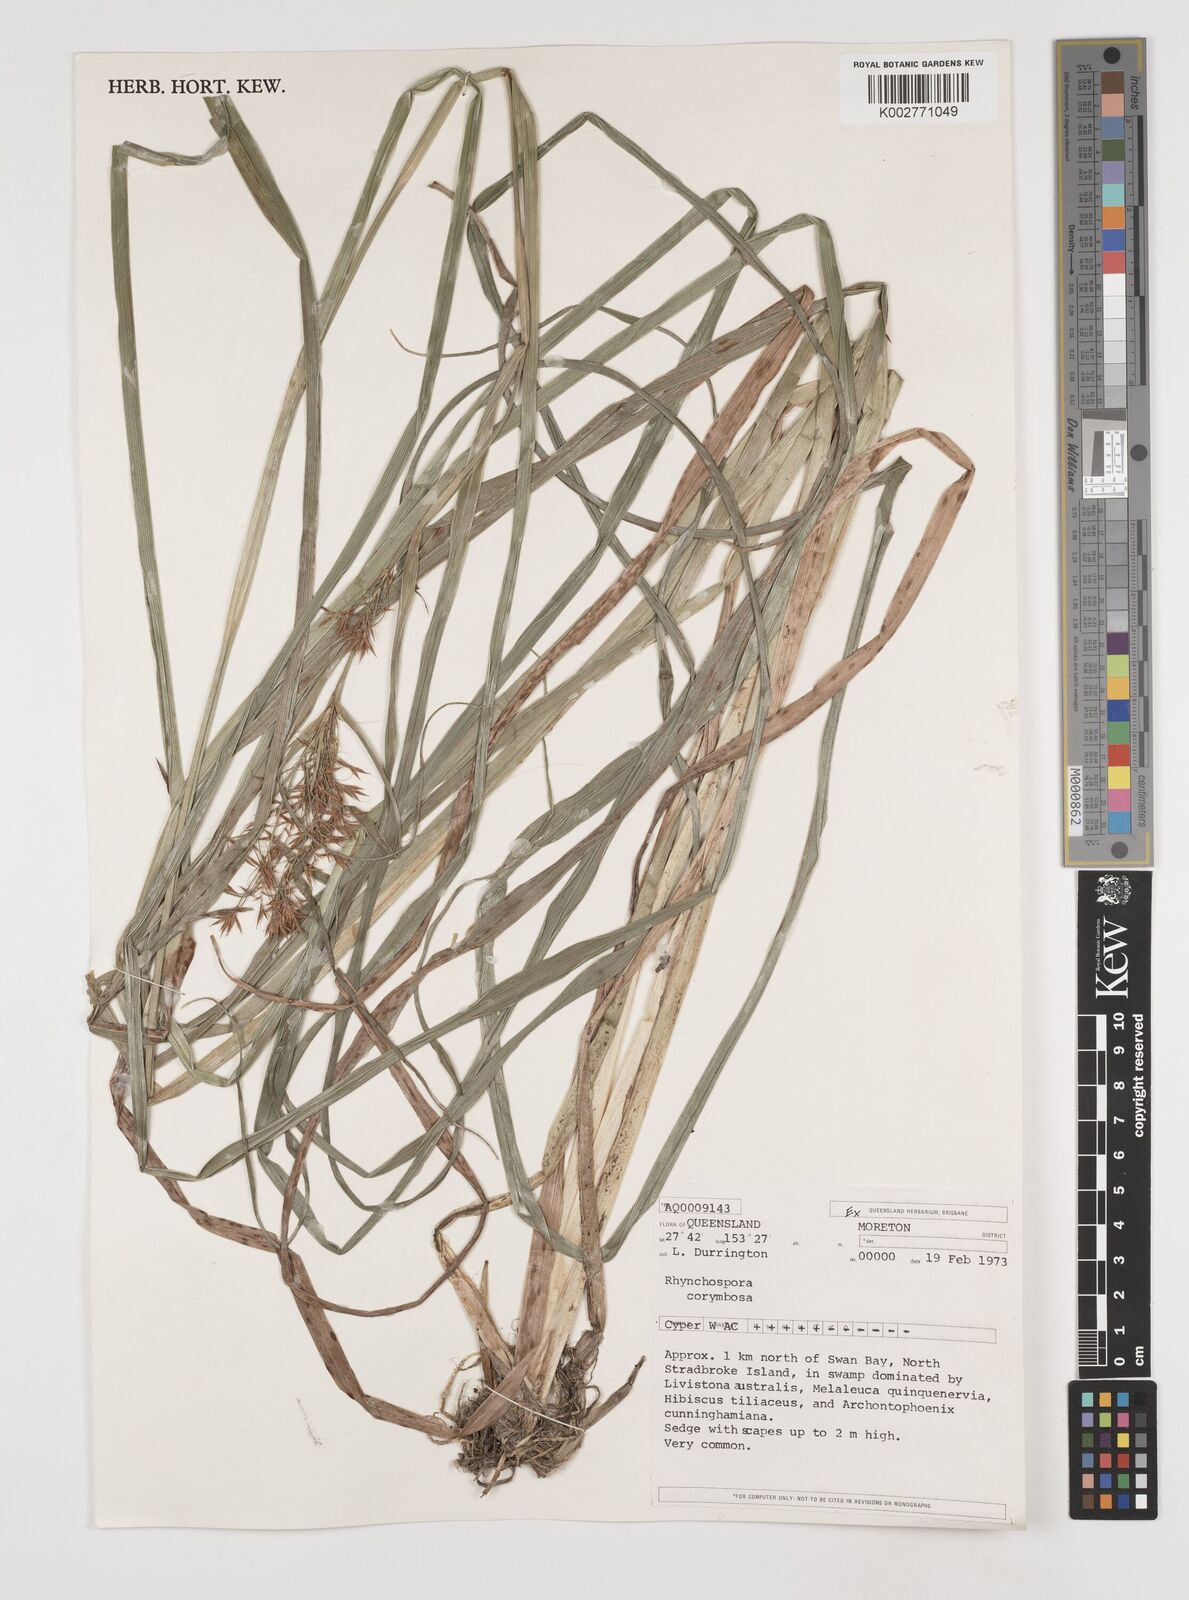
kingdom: Plantae
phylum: Tracheophyta
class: Liliopsida
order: Poales
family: Cyperaceae
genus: Rhynchospora
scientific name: Rhynchospora corymbosa
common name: Golden beak sedge
